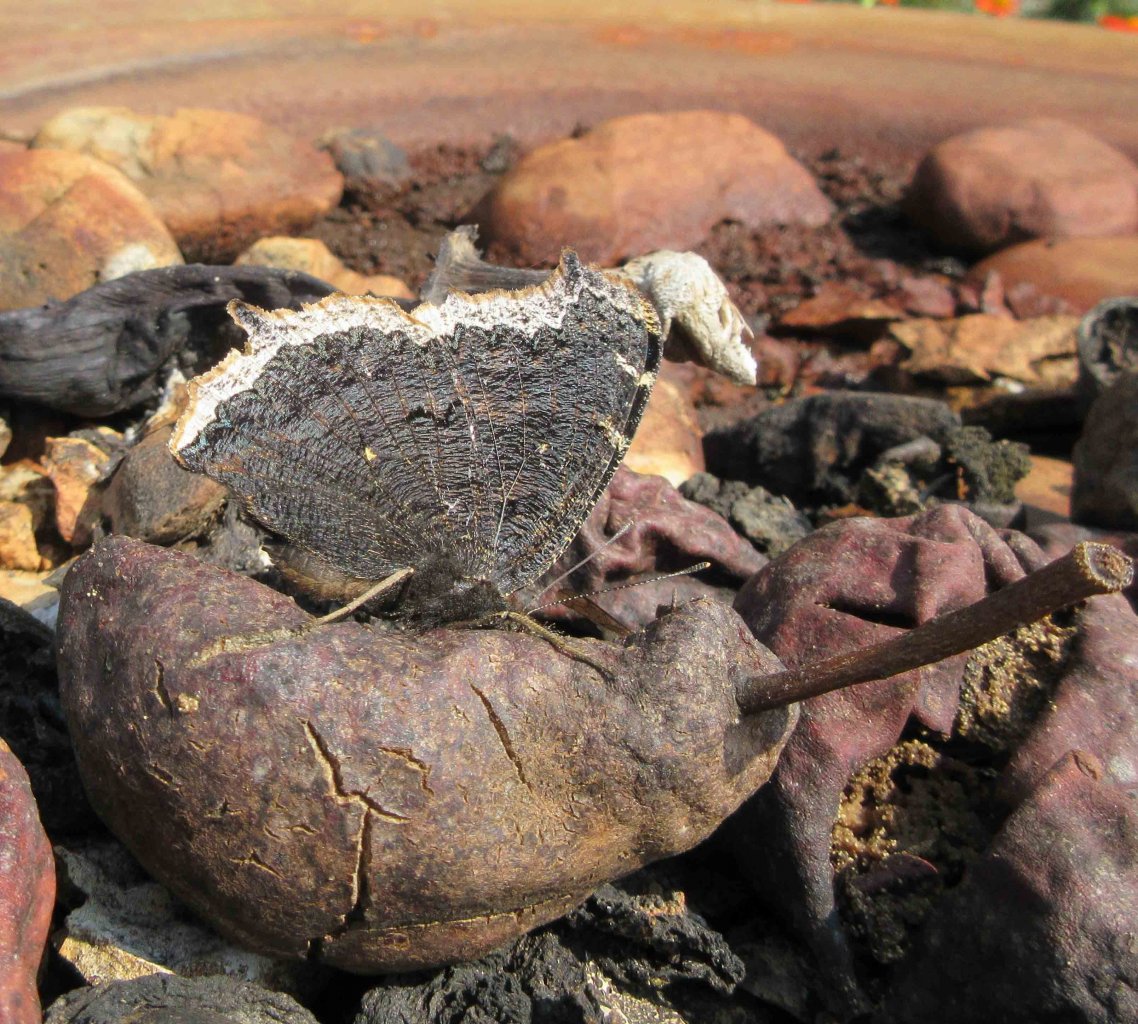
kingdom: Animalia
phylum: Arthropoda
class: Insecta
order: Lepidoptera
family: Nymphalidae
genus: Nymphalis
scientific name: Nymphalis antiopa
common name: Mourning Cloak
